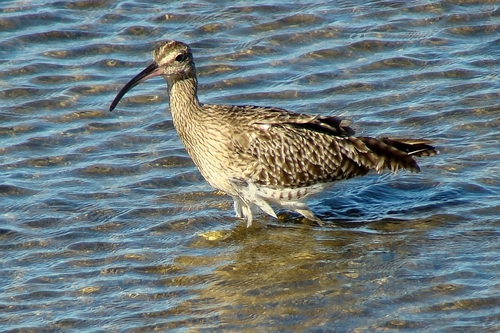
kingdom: Animalia
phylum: Chordata
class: Aves
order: Charadriiformes
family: Scolopacidae
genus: Numenius
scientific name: Numenius phaeopus
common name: Whimbrel
